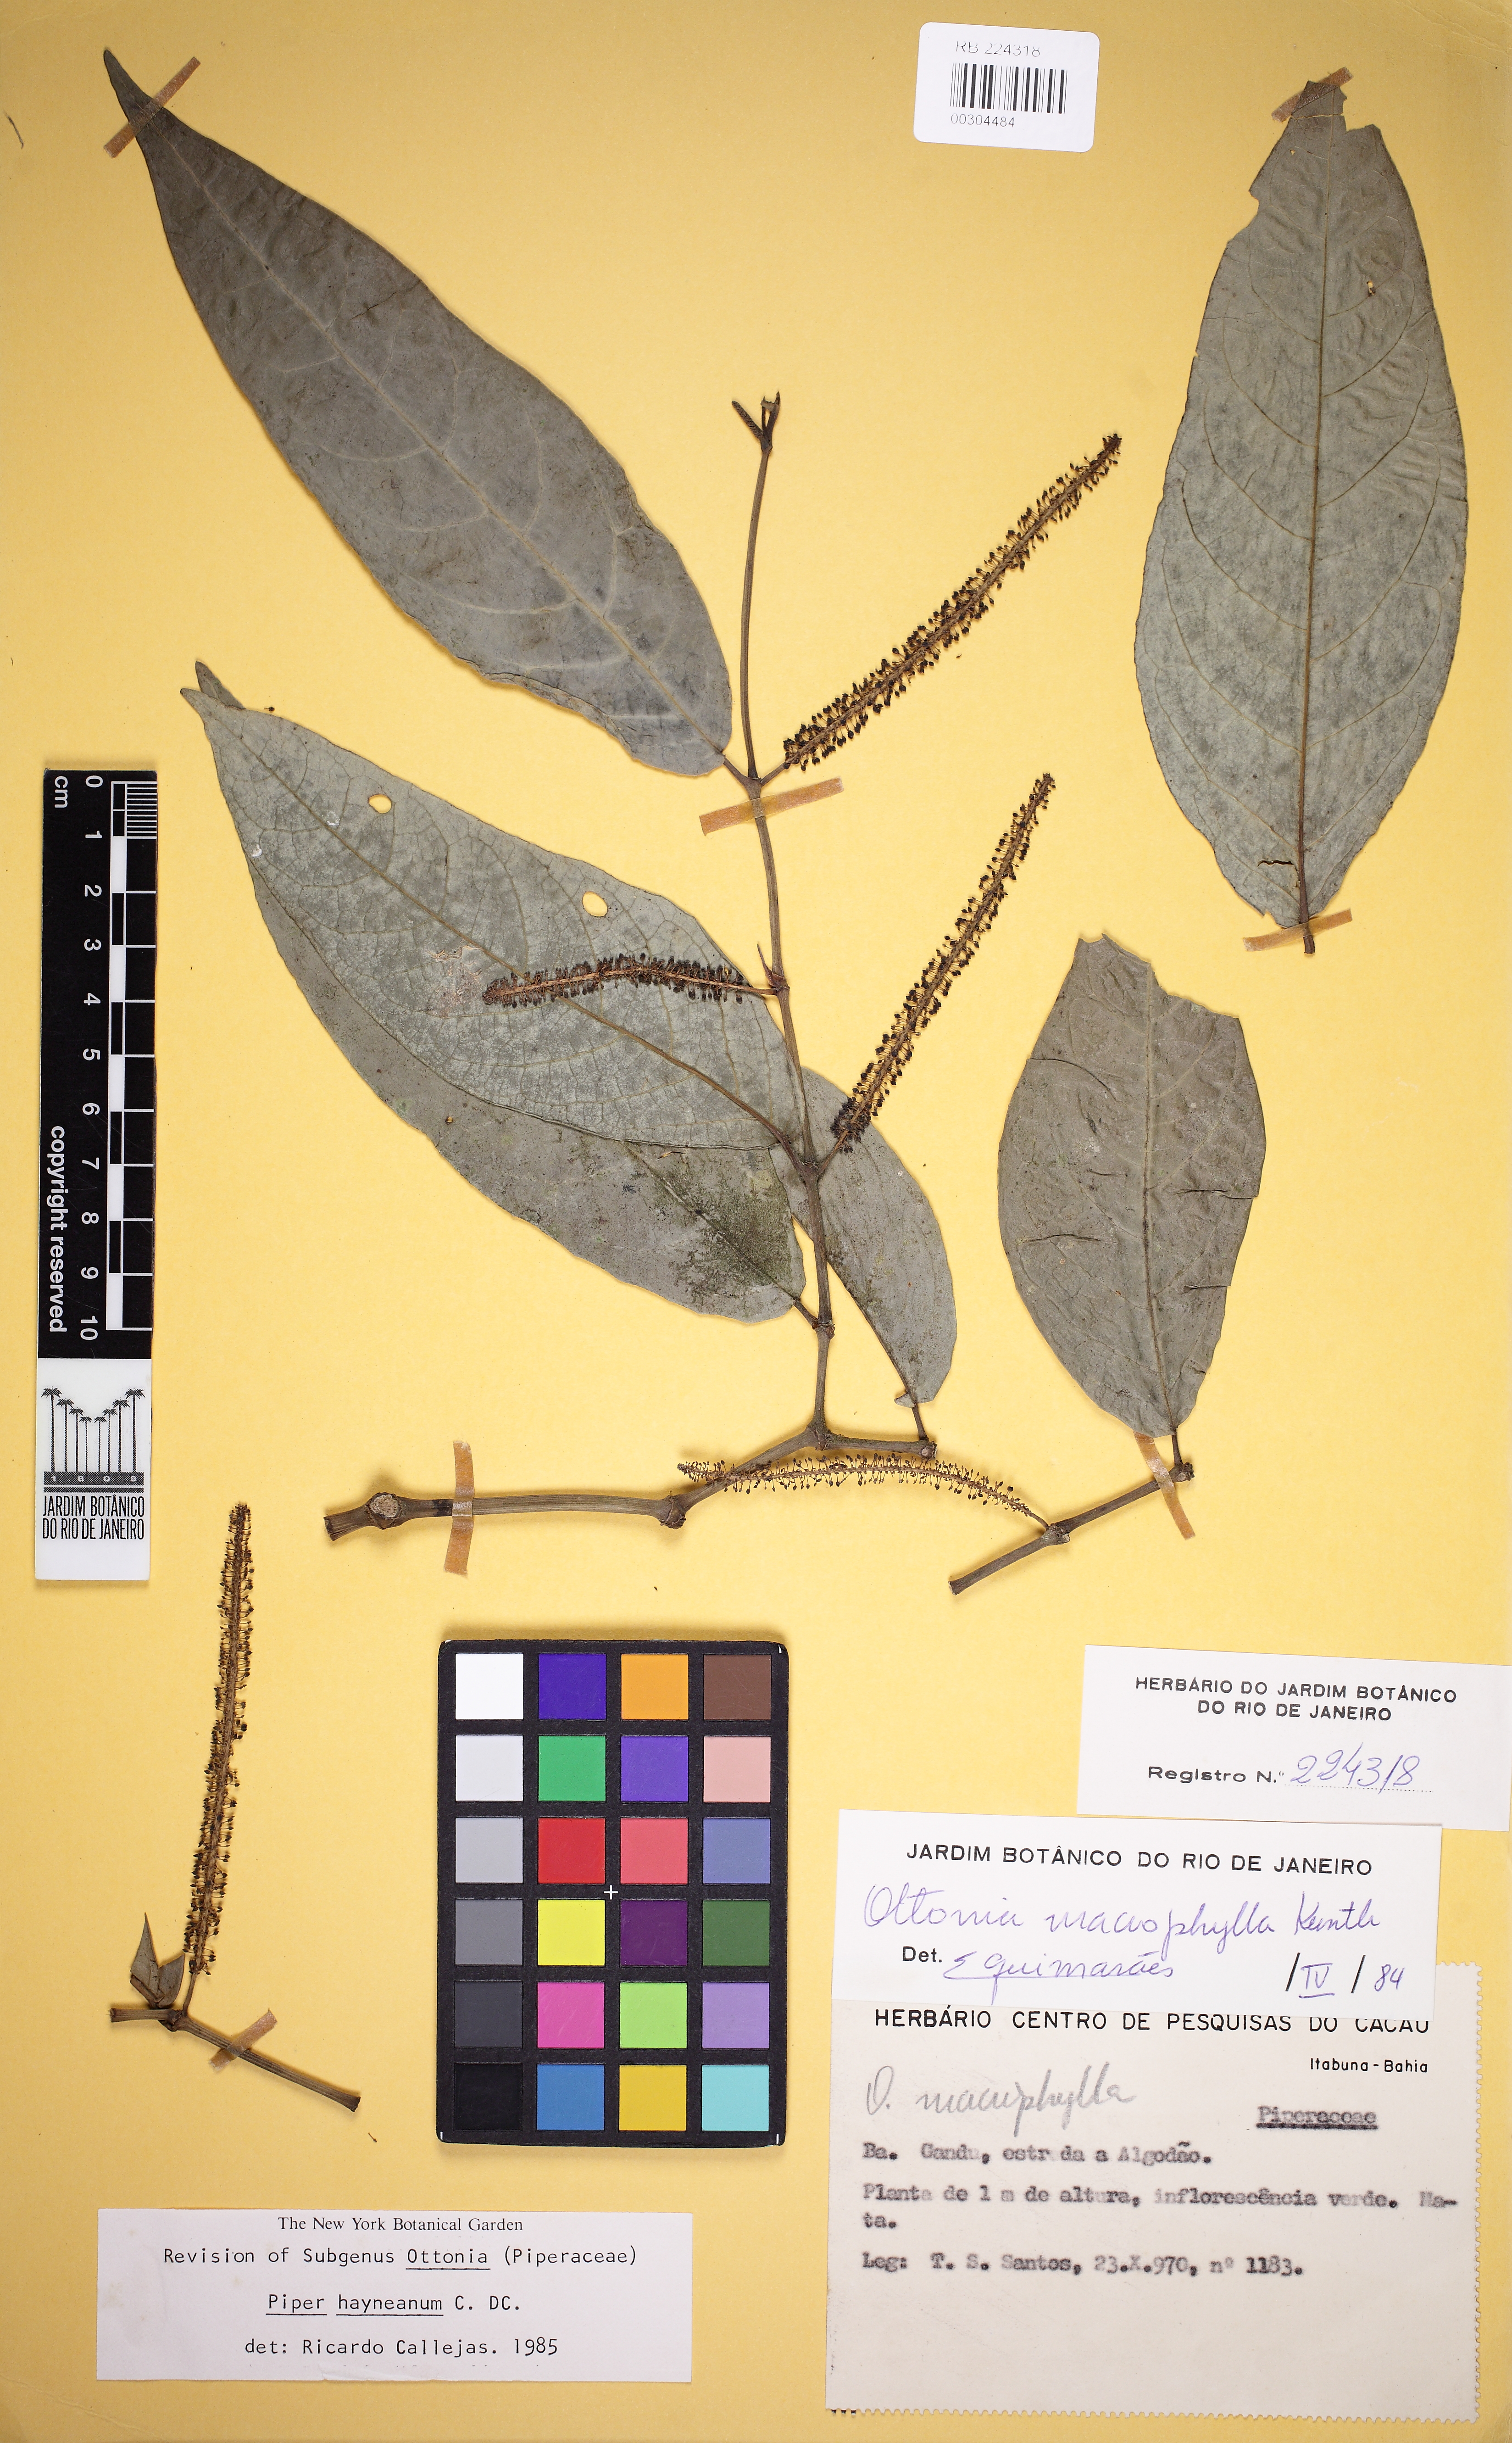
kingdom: Plantae
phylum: Tracheophyta
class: Magnoliopsida
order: Piperales
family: Piperaceae
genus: Piper
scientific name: Piper hayneanum
